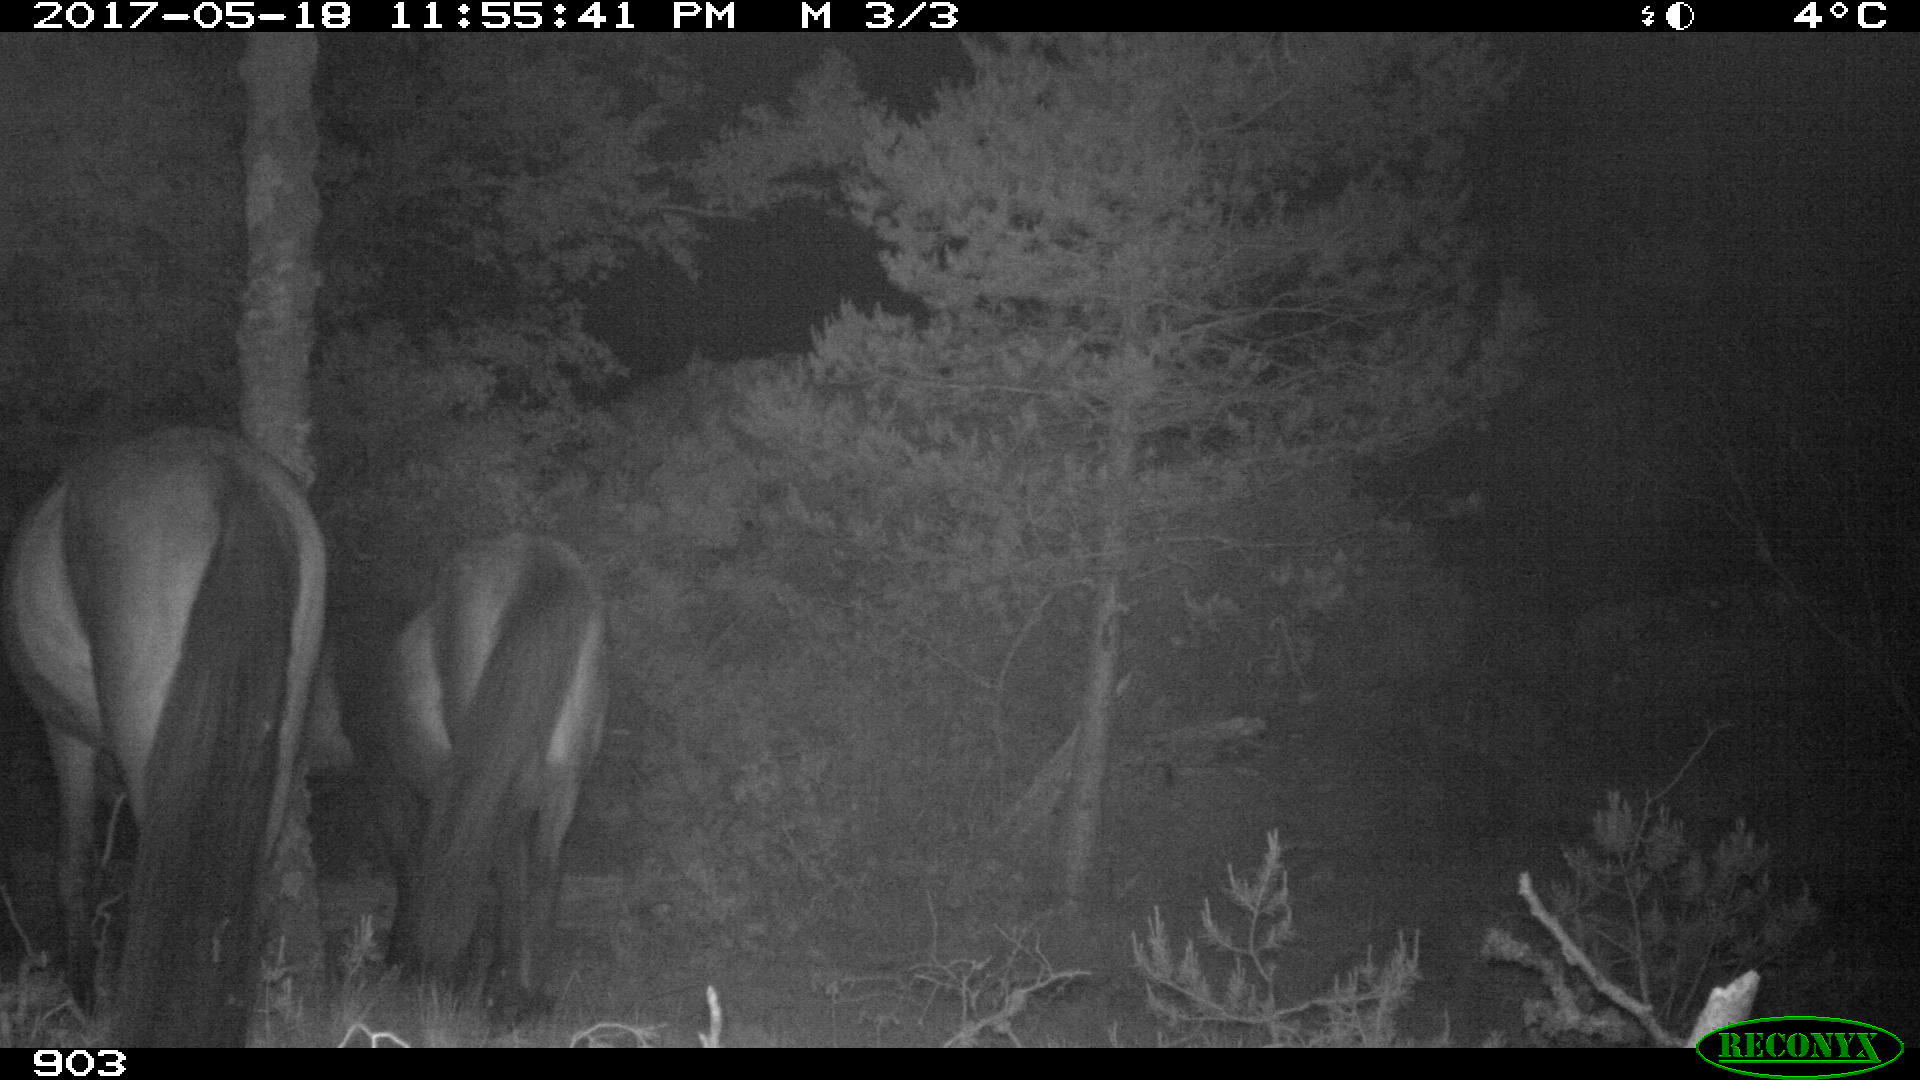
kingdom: Animalia
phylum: Chordata
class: Mammalia
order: Perissodactyla
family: Equidae
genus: Equus
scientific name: Equus caballus
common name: Horse
